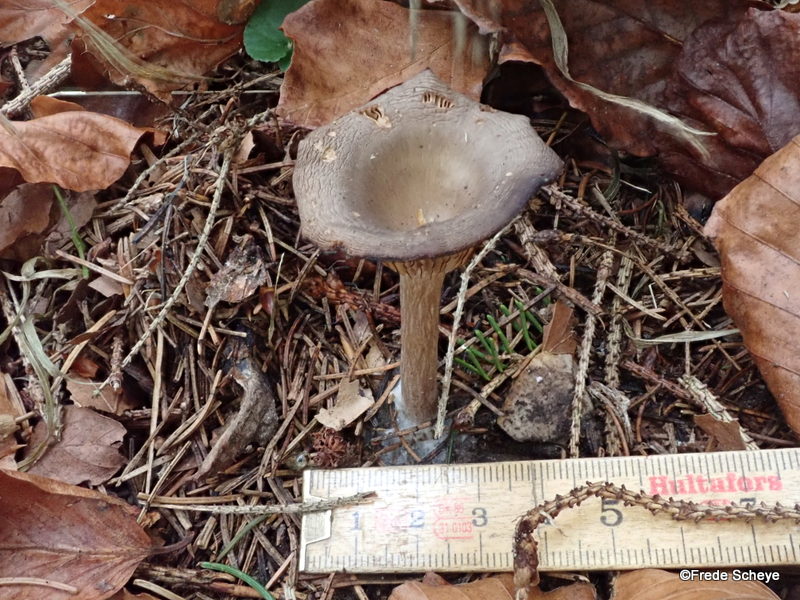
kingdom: Fungi
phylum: Basidiomycota
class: Agaricomycetes
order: Agaricales
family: Pseudoclitocybaceae
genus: Pseudoclitocybe
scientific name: Pseudoclitocybe cyathiformis
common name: almindelig bægertragthat
